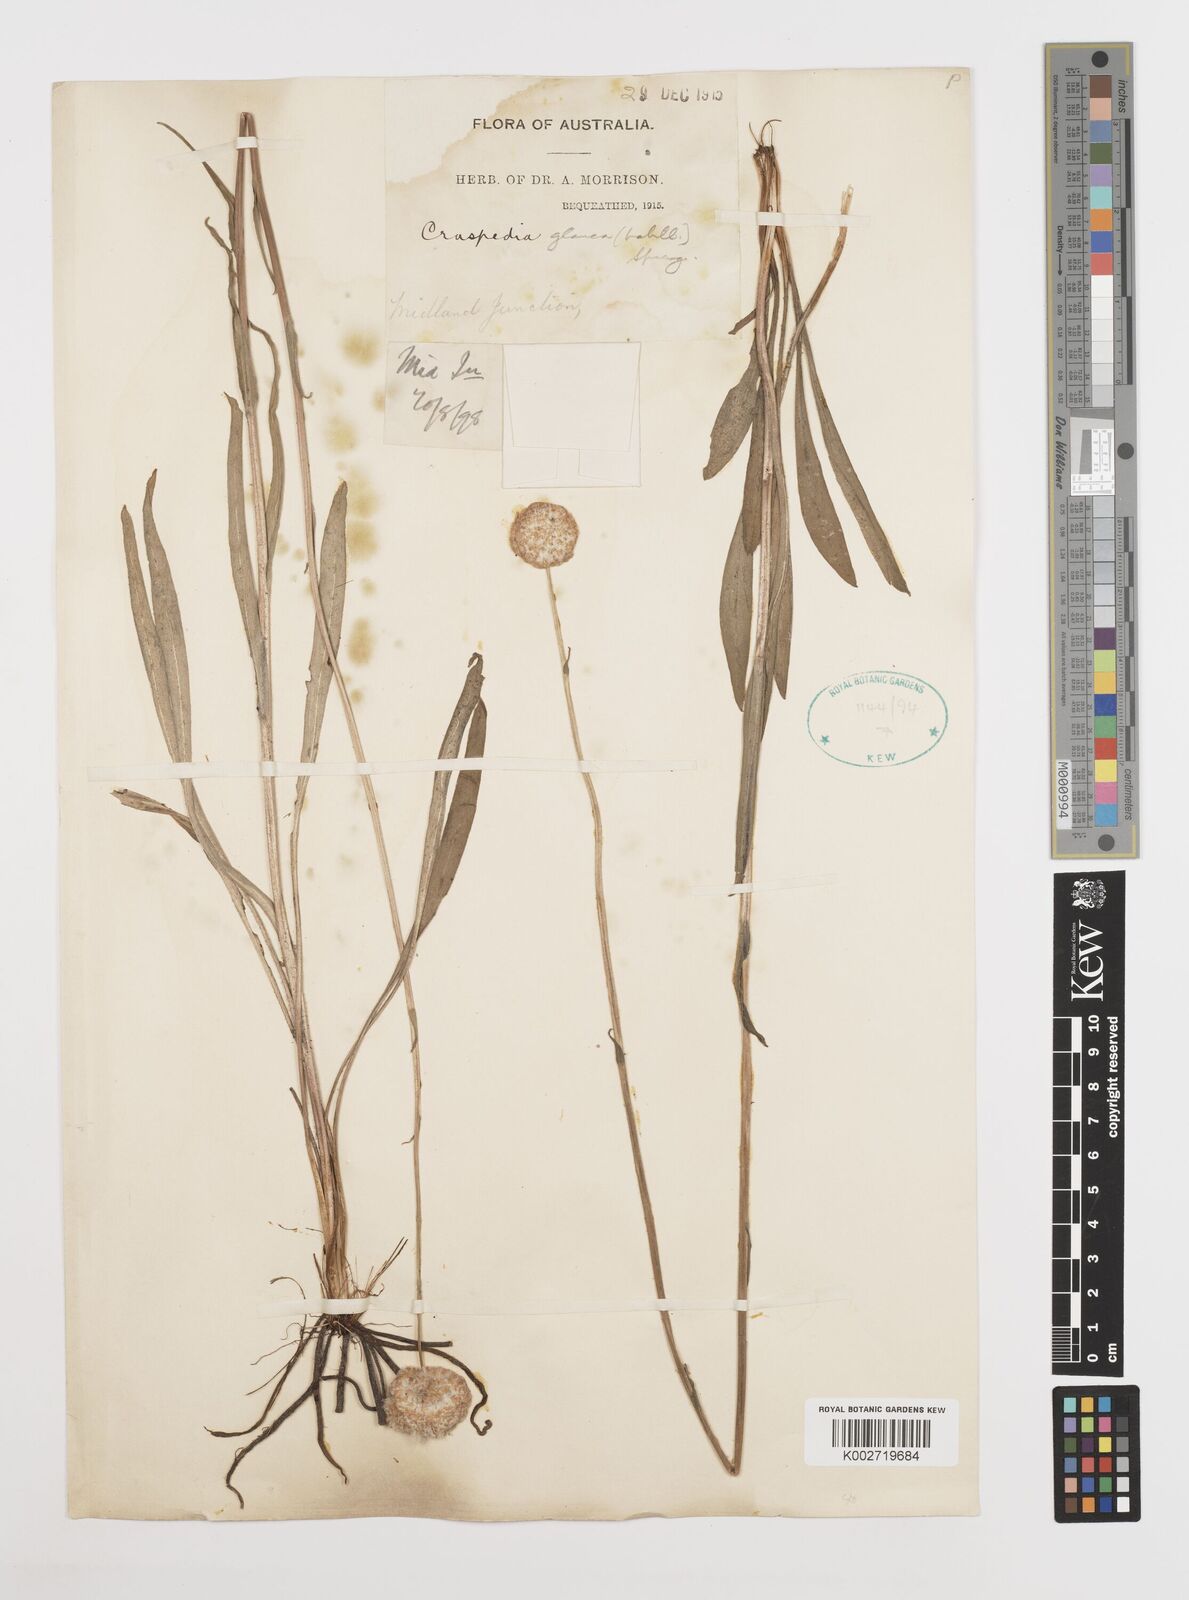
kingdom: Plantae
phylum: Tracheophyta
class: Magnoliopsida
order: Asterales
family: Asteraceae
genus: Craspedia
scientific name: Craspedia glauca
